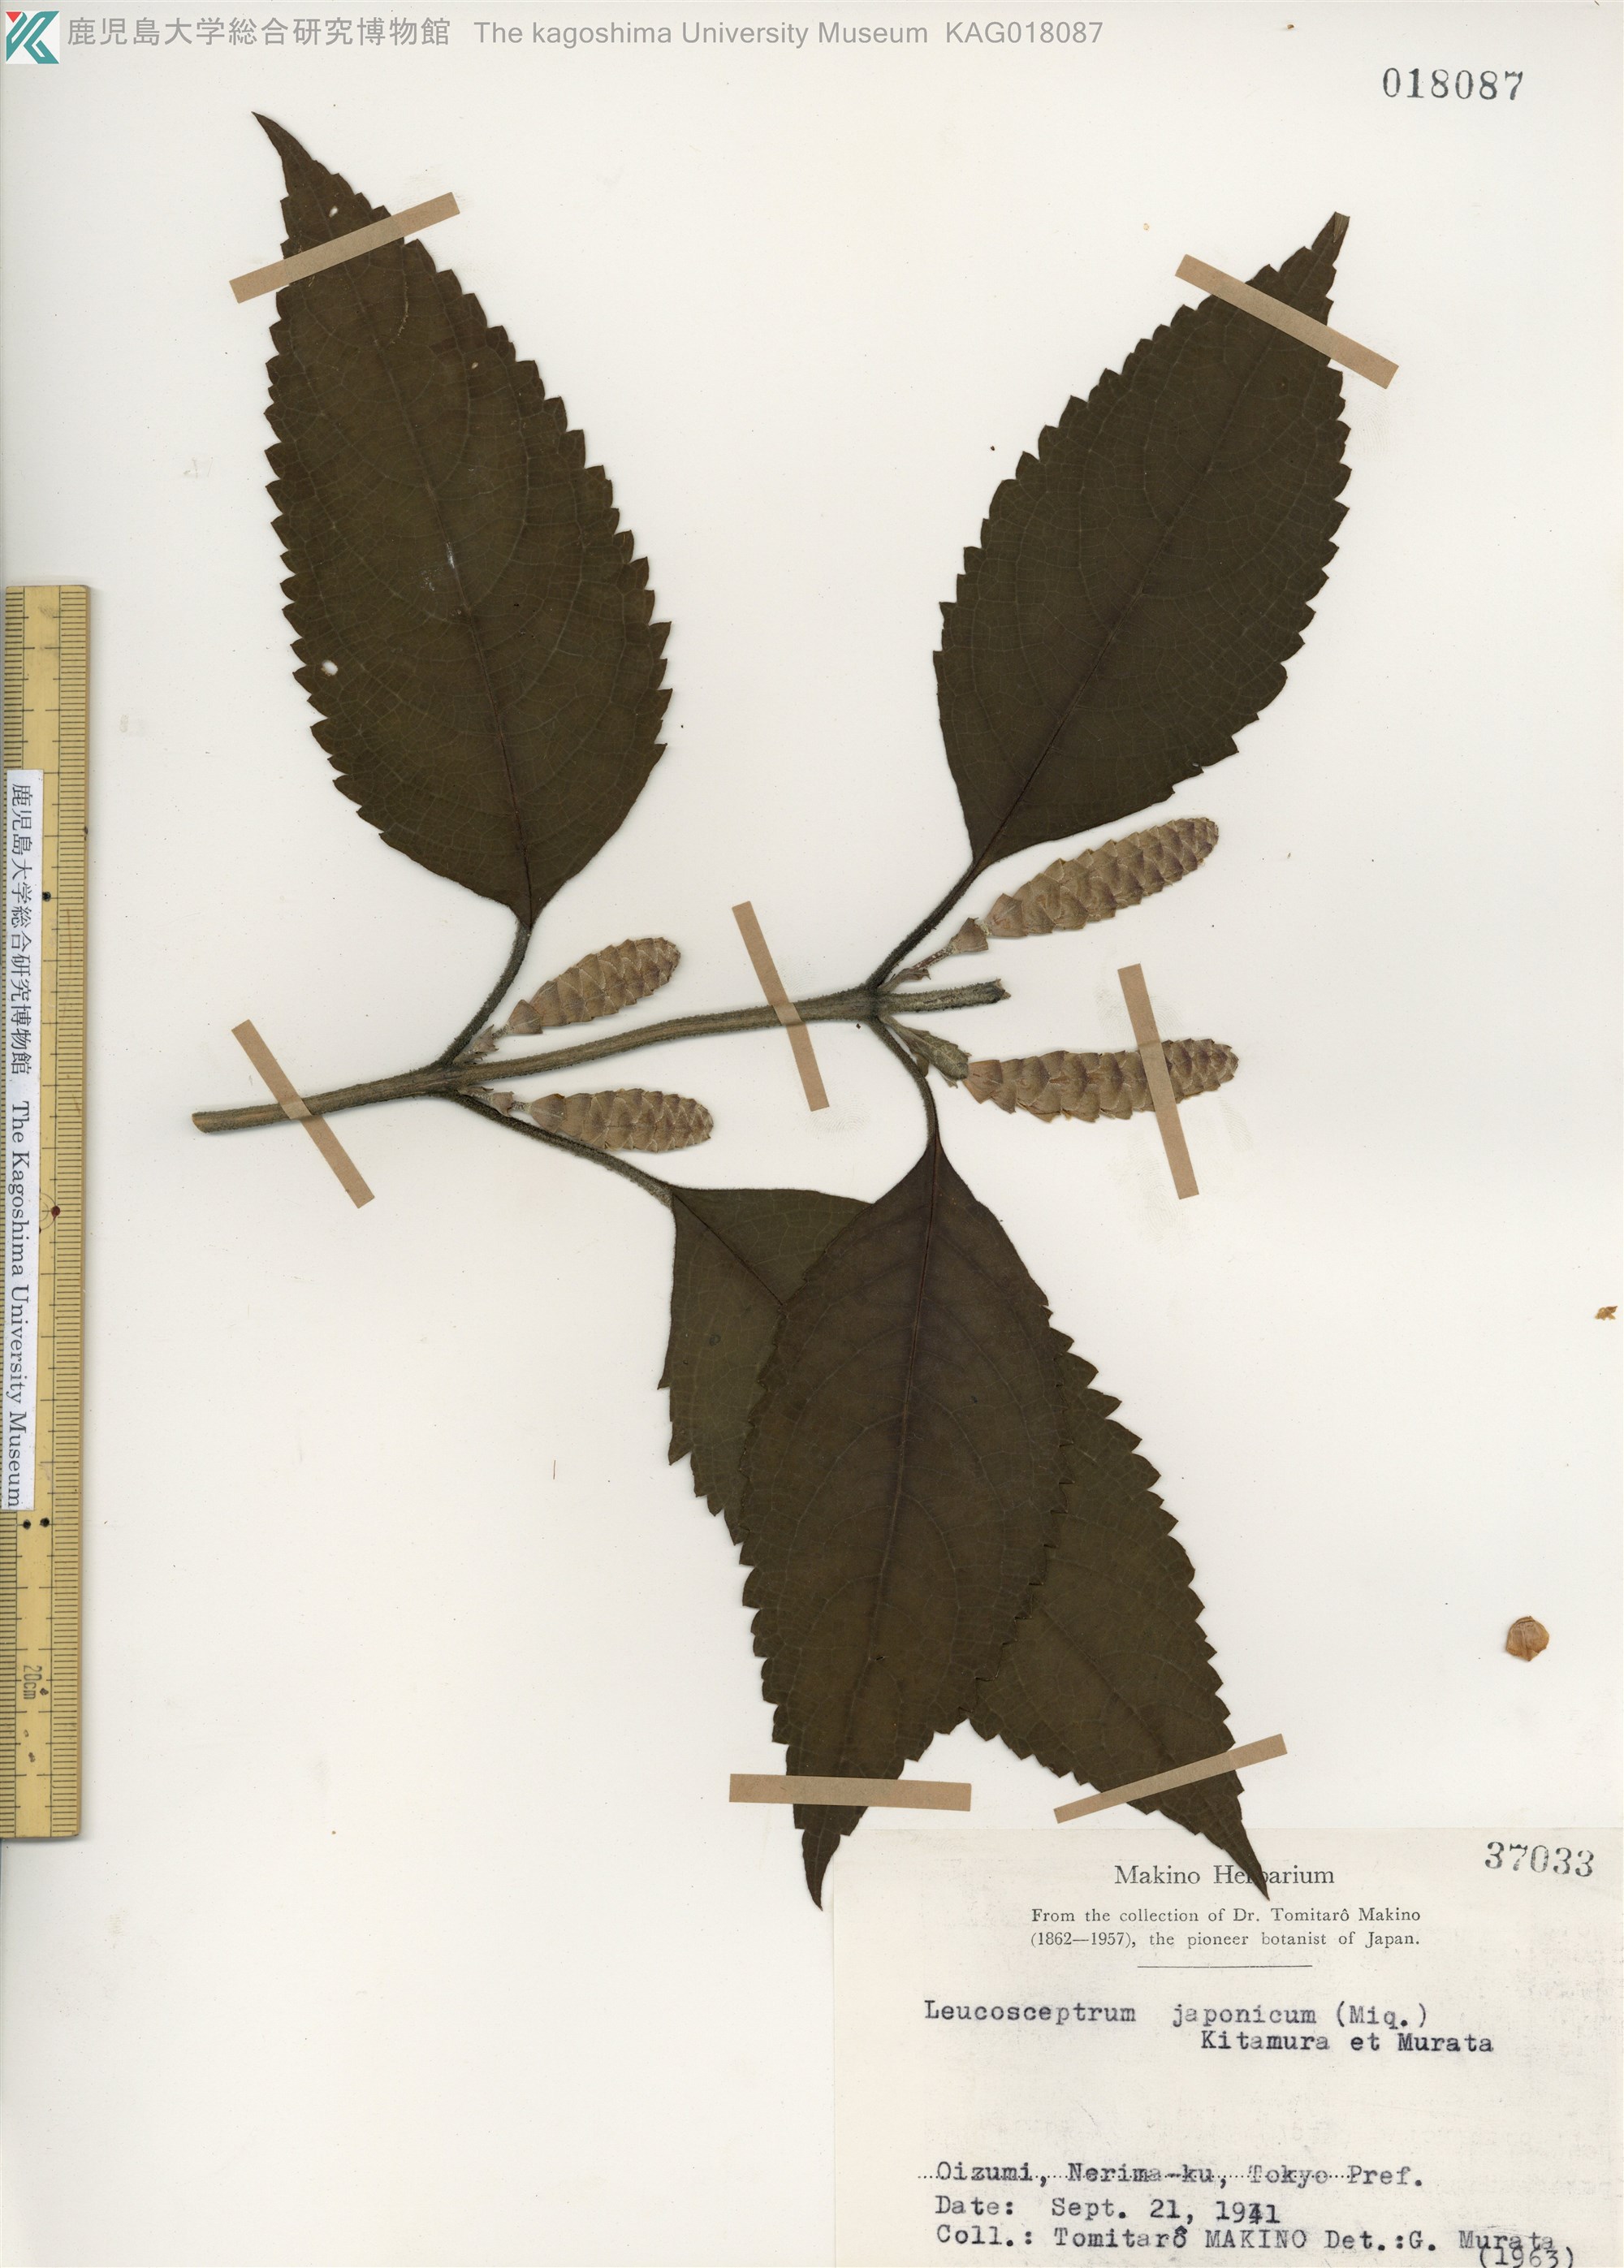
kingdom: Plantae
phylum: Tracheophyta
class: Magnoliopsida
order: Lamiales
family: Lamiaceae
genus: Comanthosphace
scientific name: Comanthosphace stellipila
